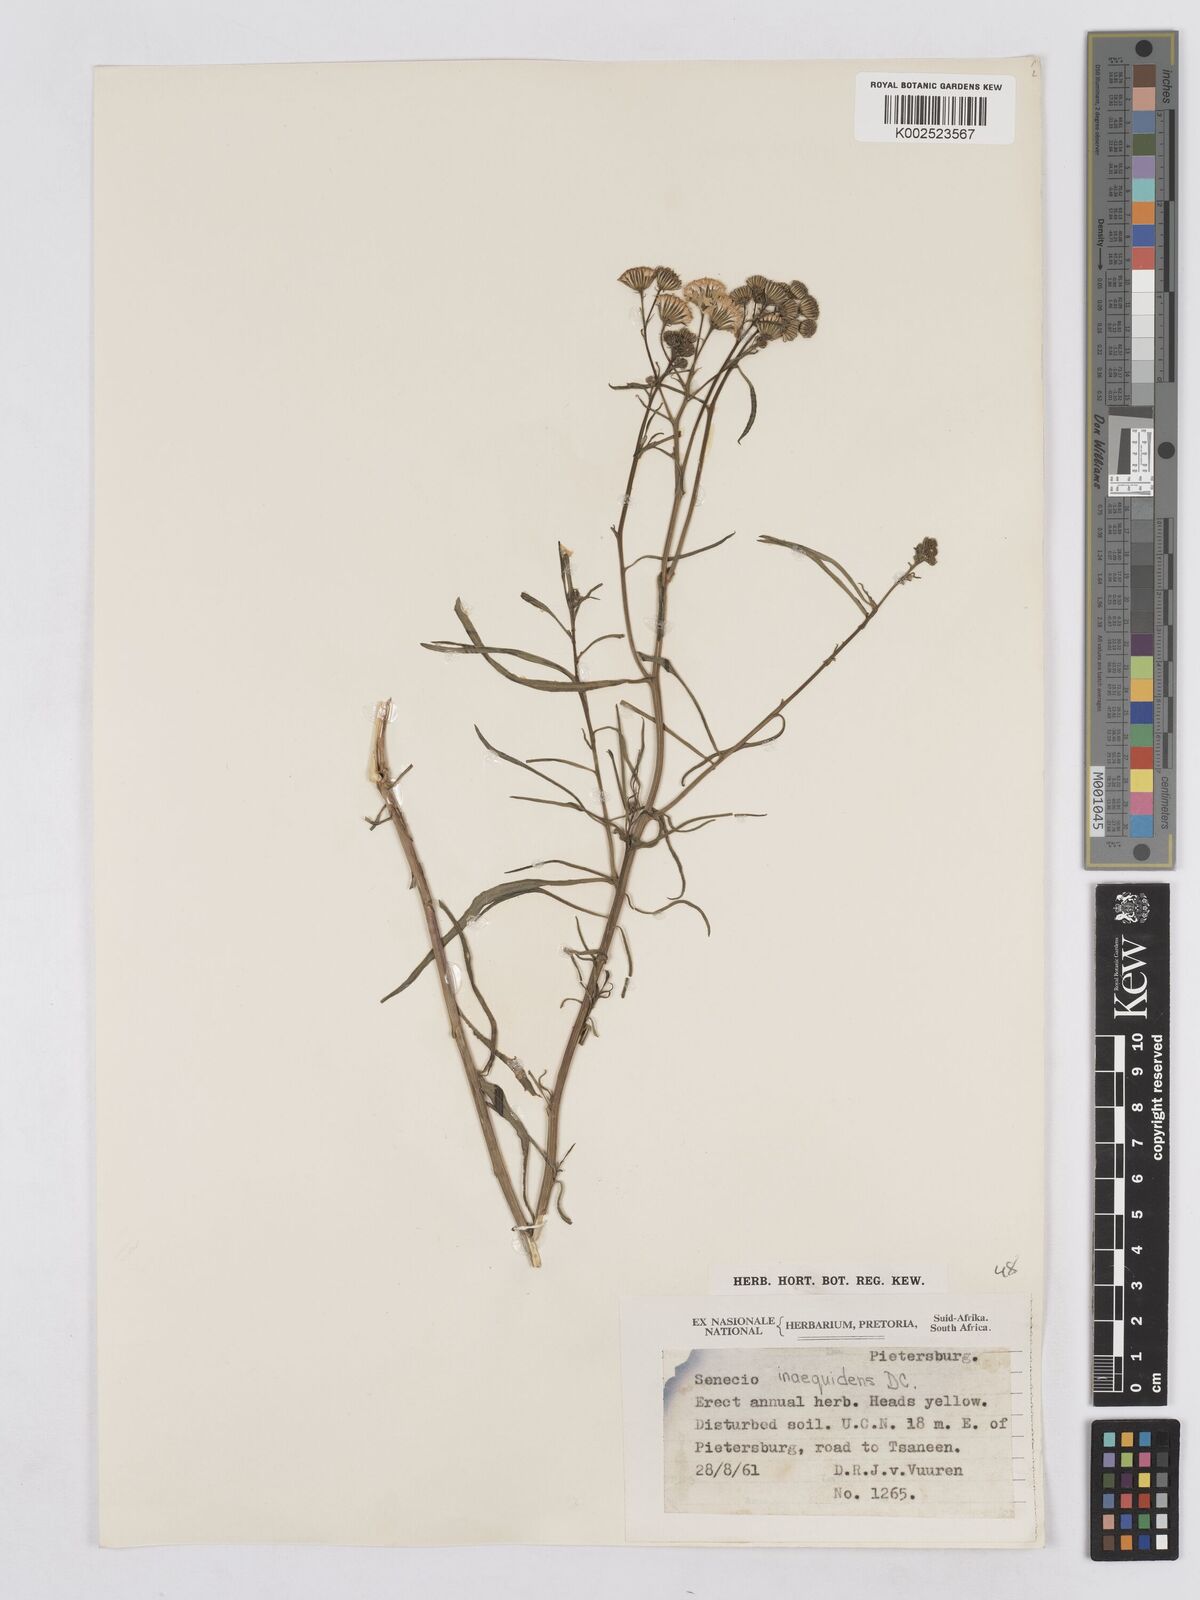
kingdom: Plantae
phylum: Tracheophyta
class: Magnoliopsida
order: Asterales
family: Asteraceae
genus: Senecio
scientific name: Senecio inaequidens
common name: Narrow-leaved ragwort
